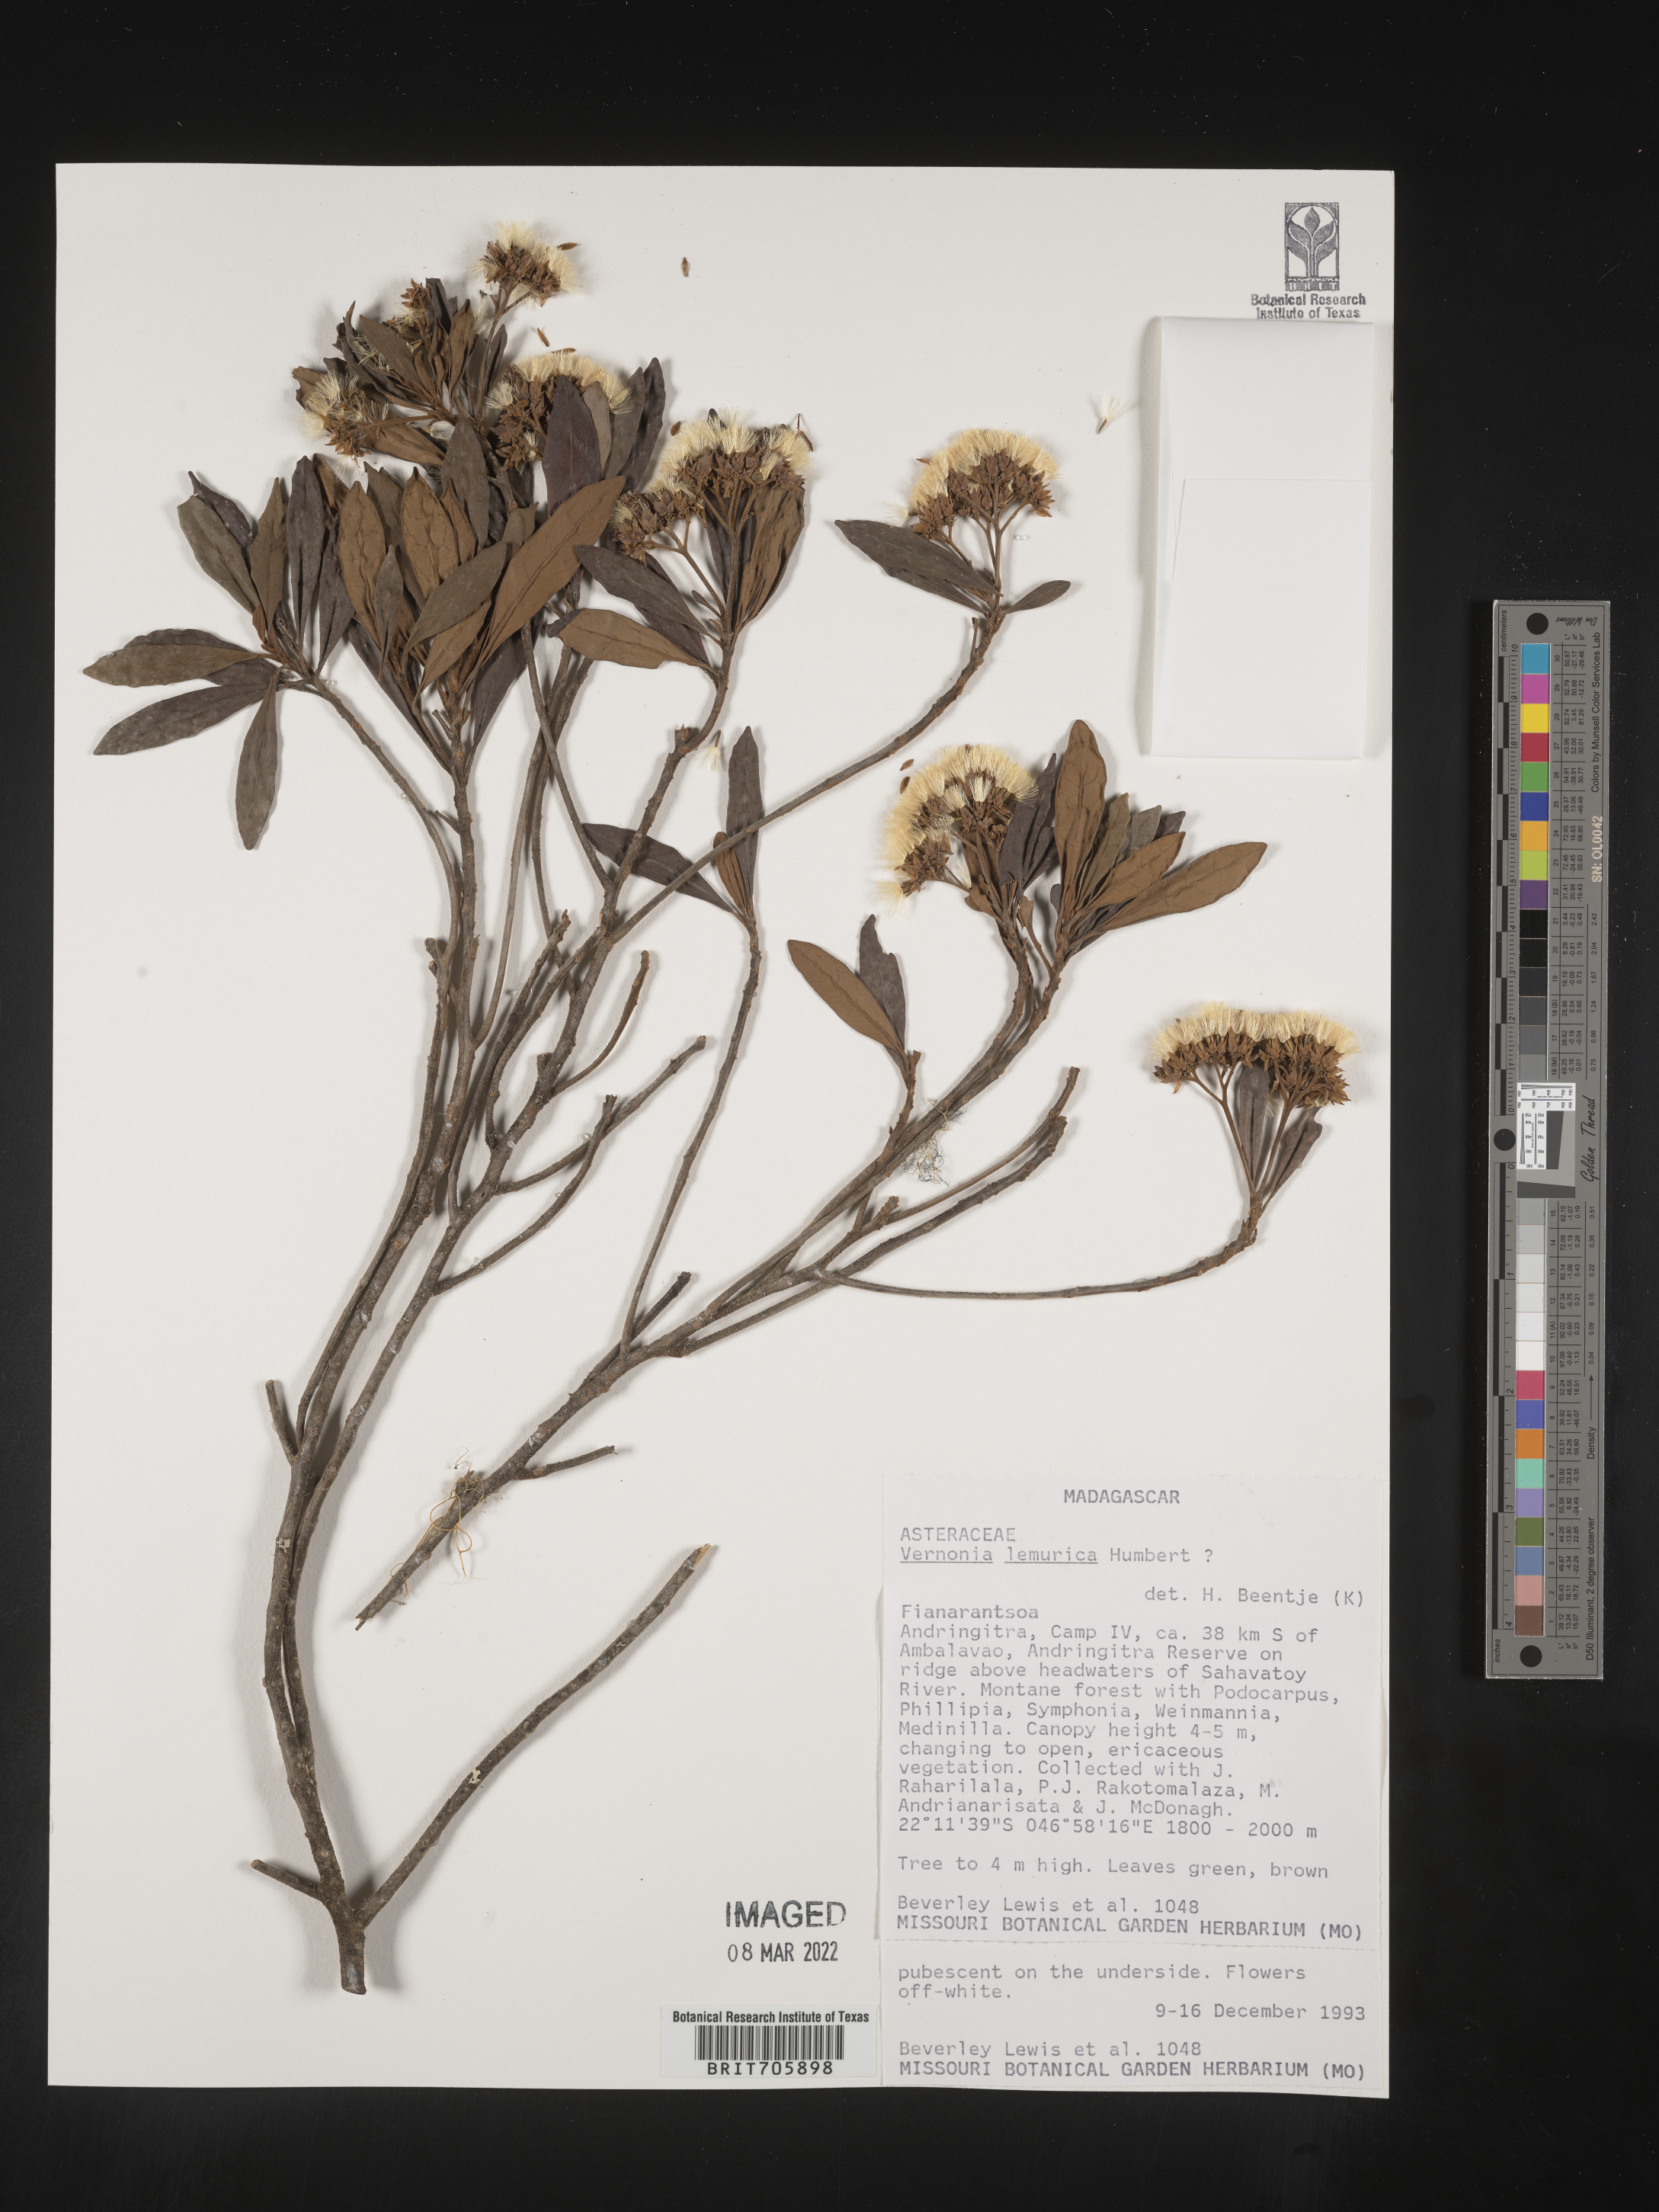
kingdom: Plantae
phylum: Tracheophyta
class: Magnoliopsida
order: Asterales
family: Asteraceae
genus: Vernonia
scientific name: Vernonia
